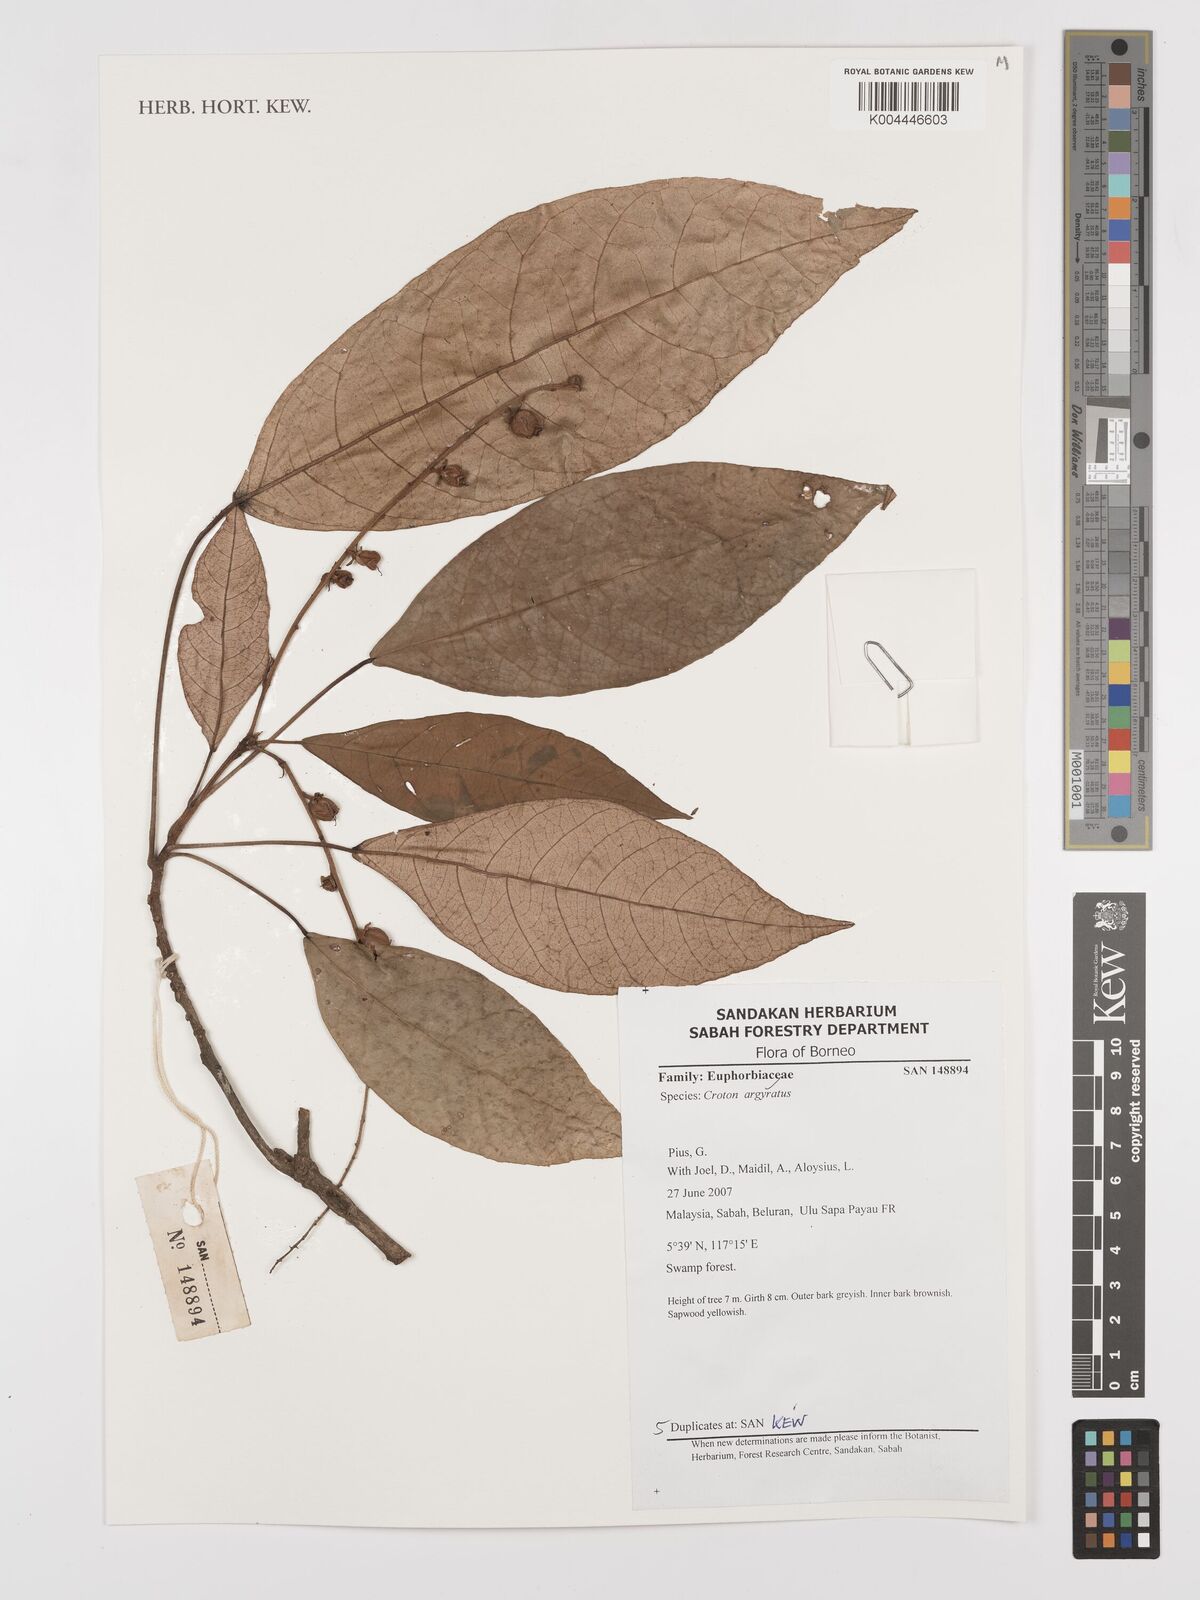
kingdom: Plantae
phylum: Tracheophyta
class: Magnoliopsida
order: Malpighiales
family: Euphorbiaceae
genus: Croton
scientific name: Croton argyratus
